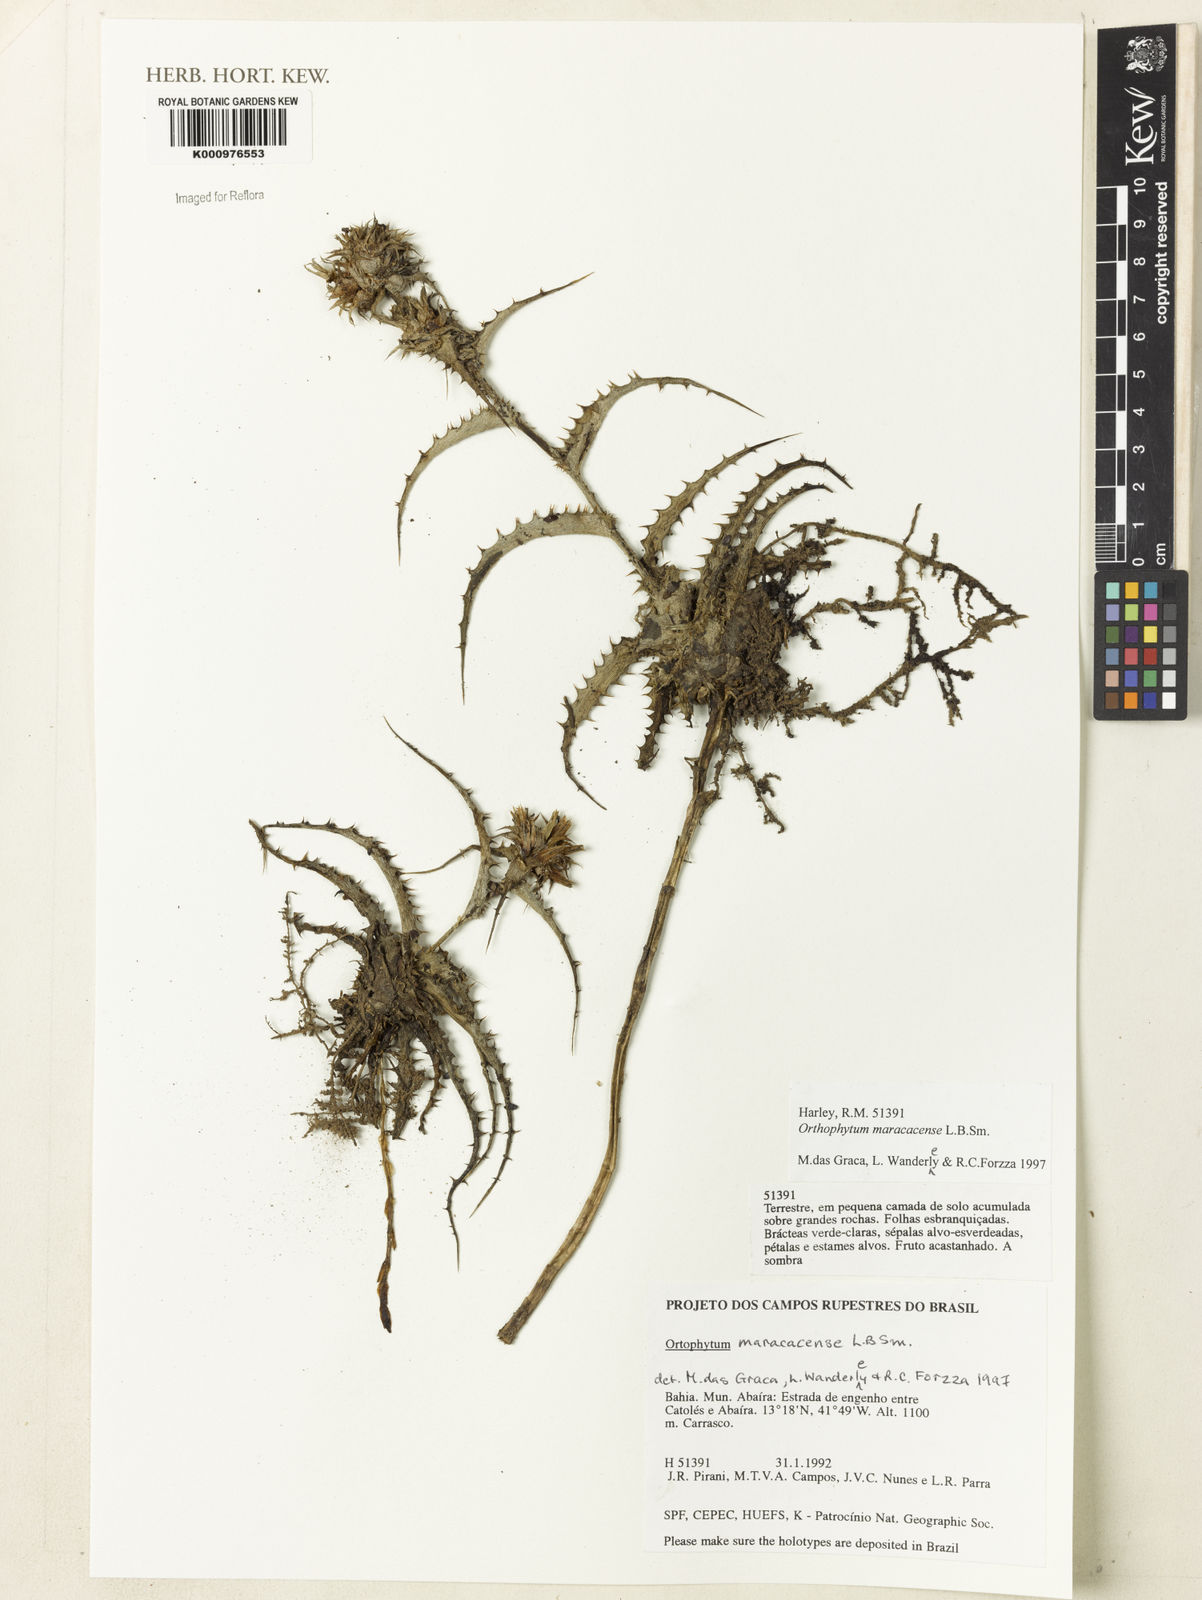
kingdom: Plantae
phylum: Tracheophyta
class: Liliopsida
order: Poales
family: Bromeliaceae
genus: Orthophytum
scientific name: Orthophytum maracasense
